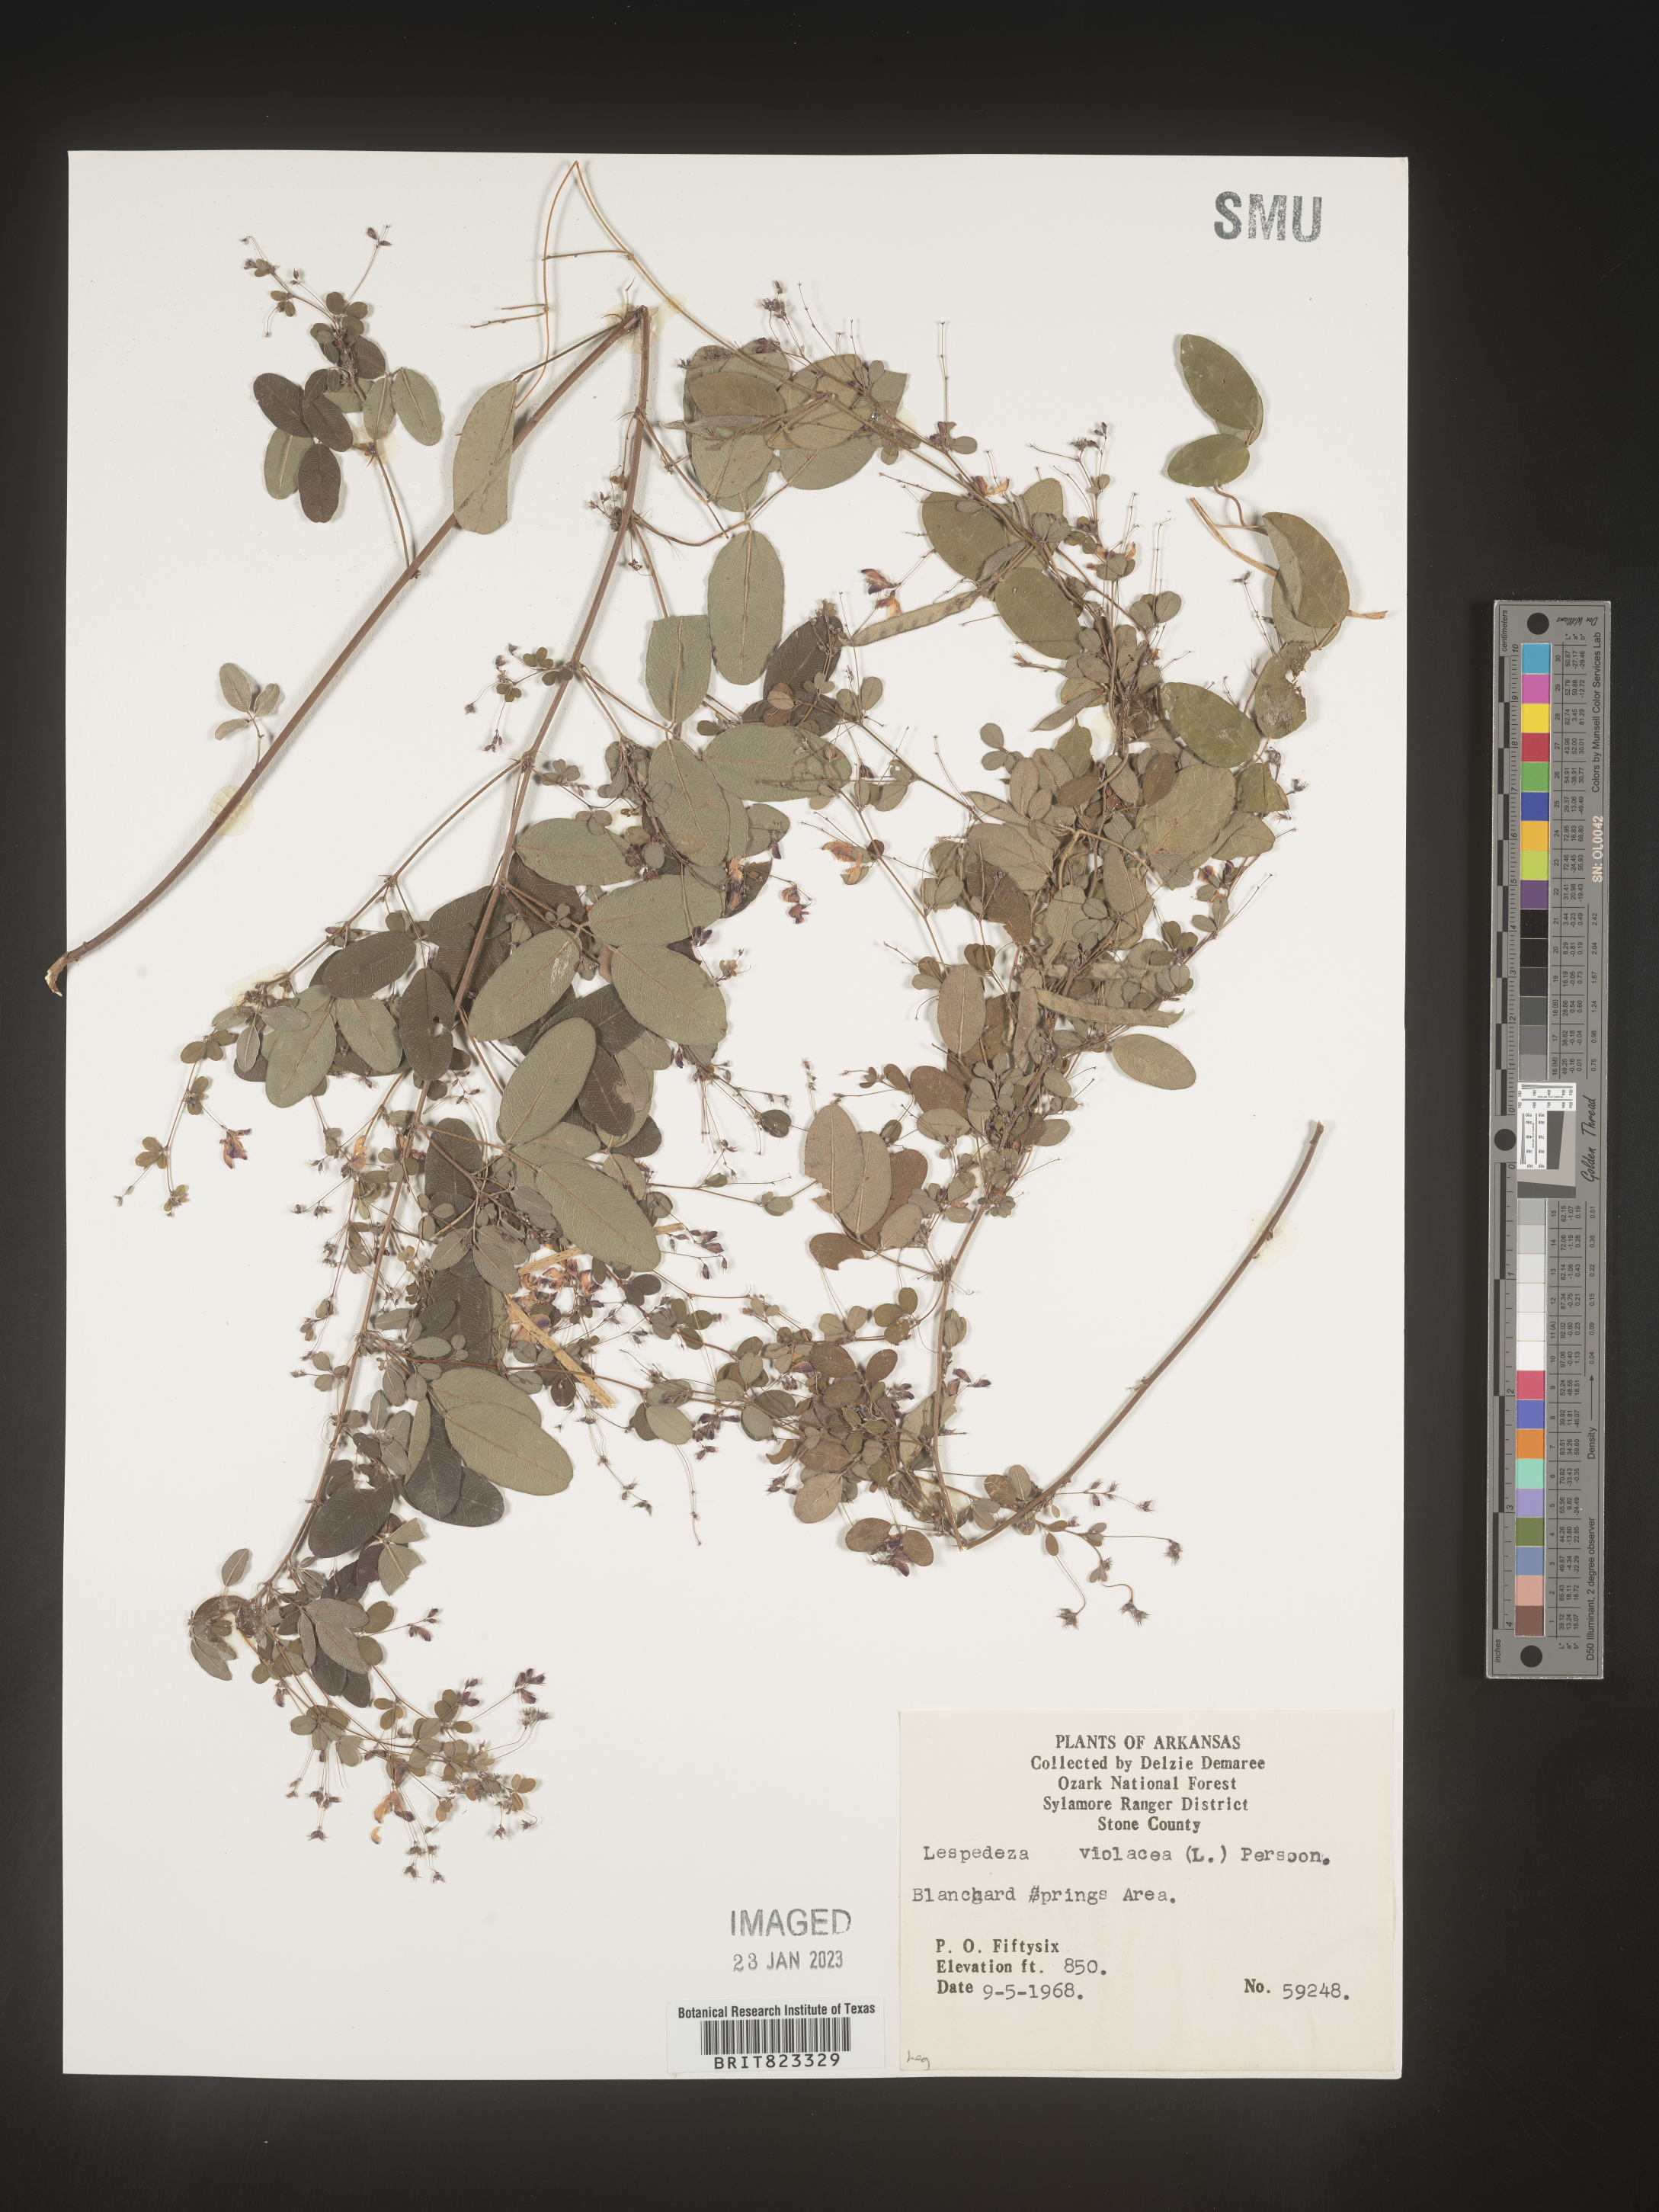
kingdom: Plantae
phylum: Tracheophyta
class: Magnoliopsida
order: Fabales
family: Fabaceae
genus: Lespedeza
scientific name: Lespedeza violacea
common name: Wand bush-clover
